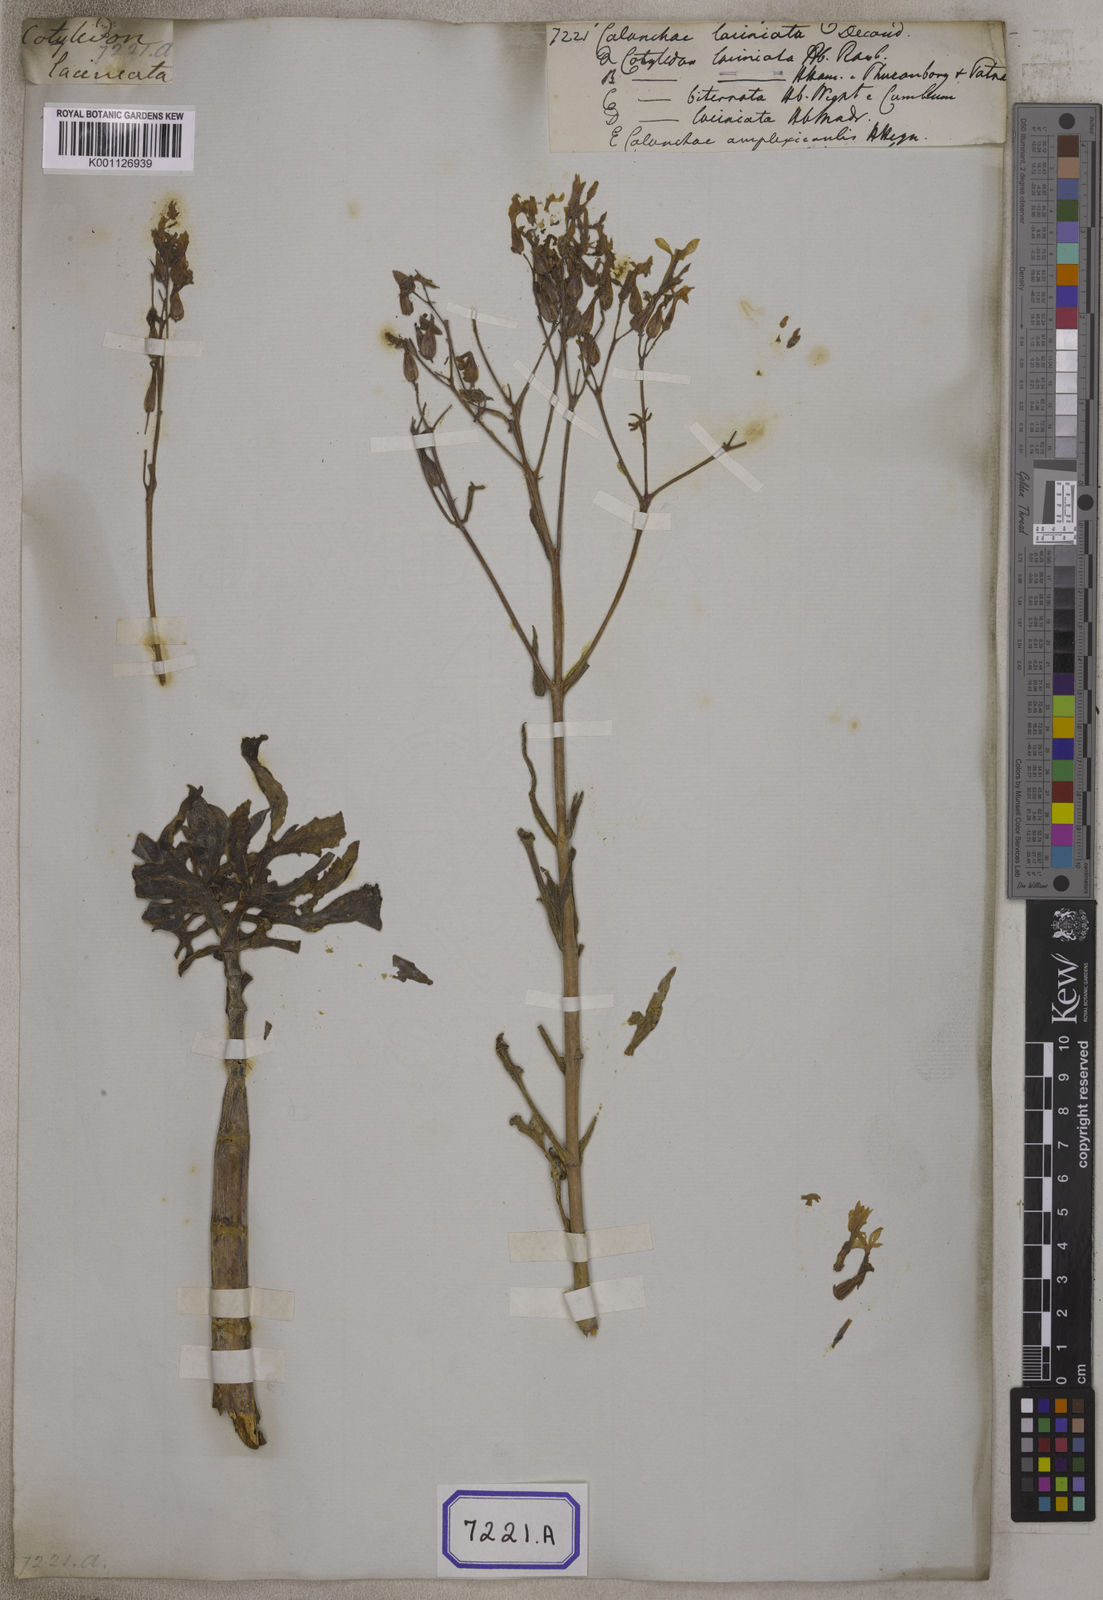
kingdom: Plantae
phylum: Tracheophyta
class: Magnoliopsida
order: Saxifragales
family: Crassulaceae
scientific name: Crassulaceae
